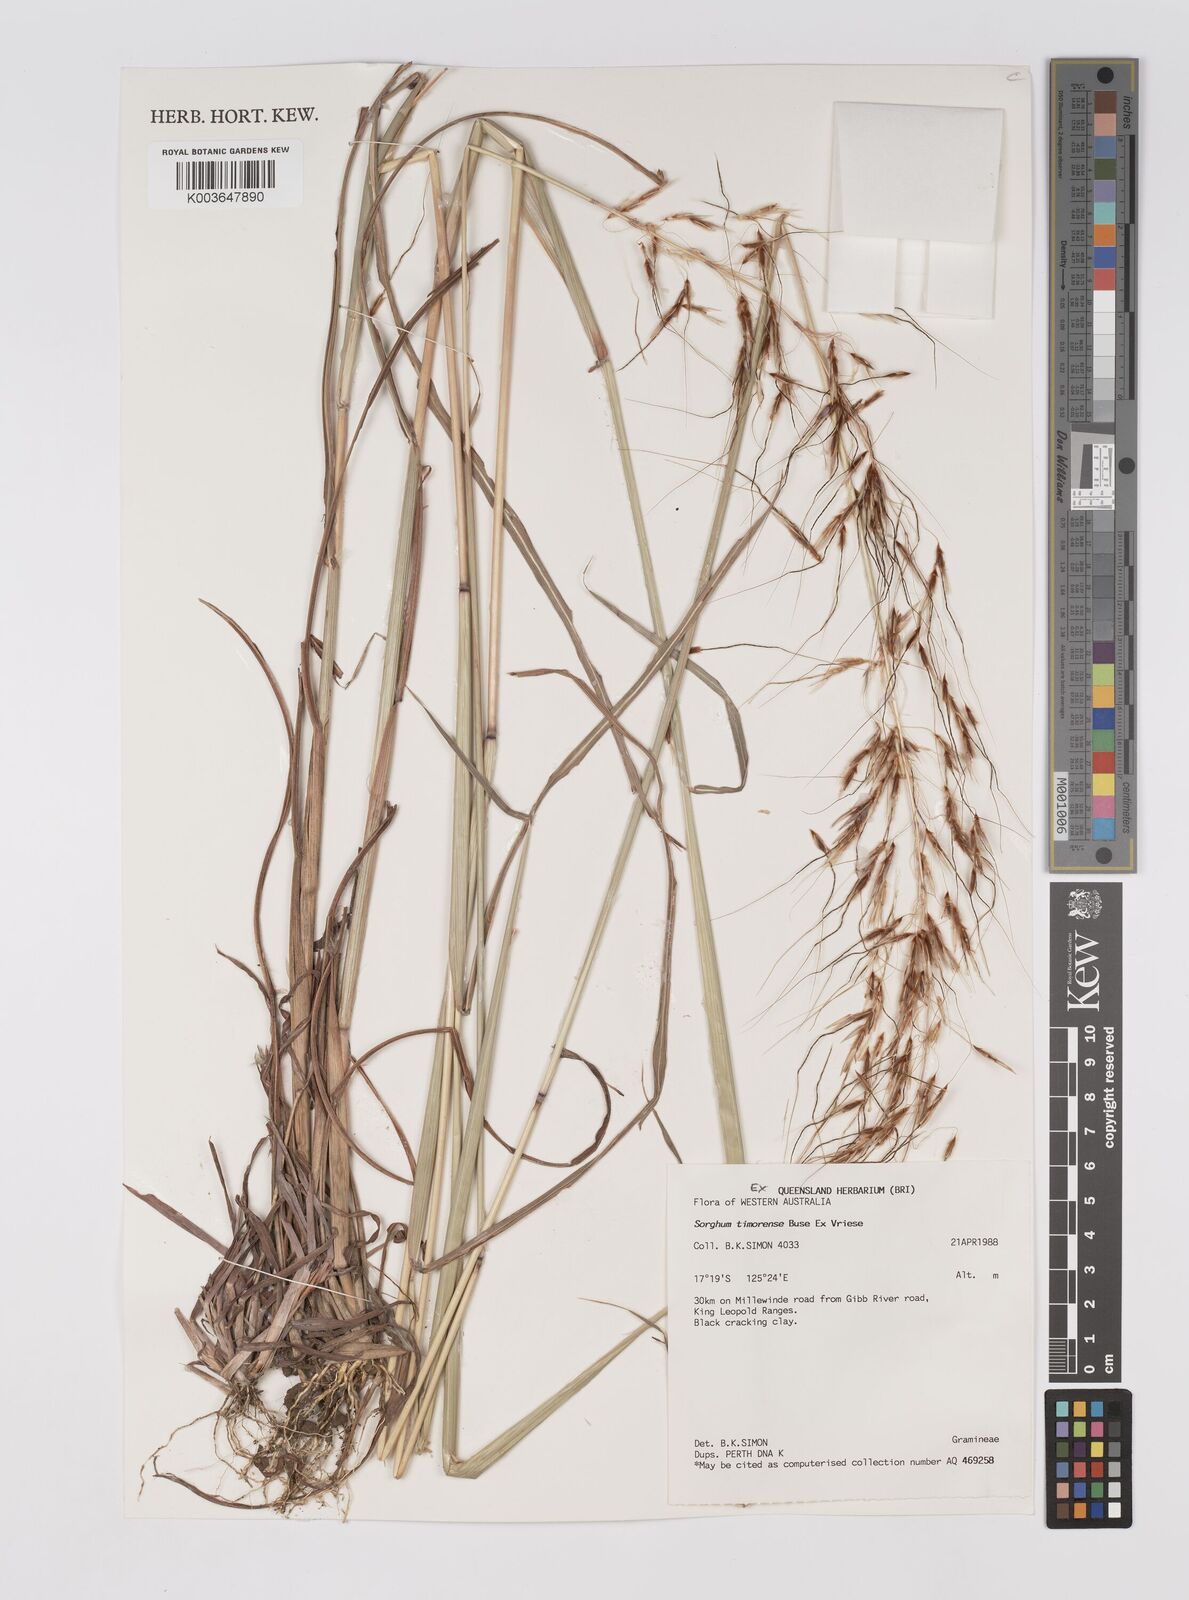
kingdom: Plantae
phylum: Tracheophyta
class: Liliopsida
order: Poales
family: Poaceae
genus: Sarga
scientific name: Sarga timorensis
